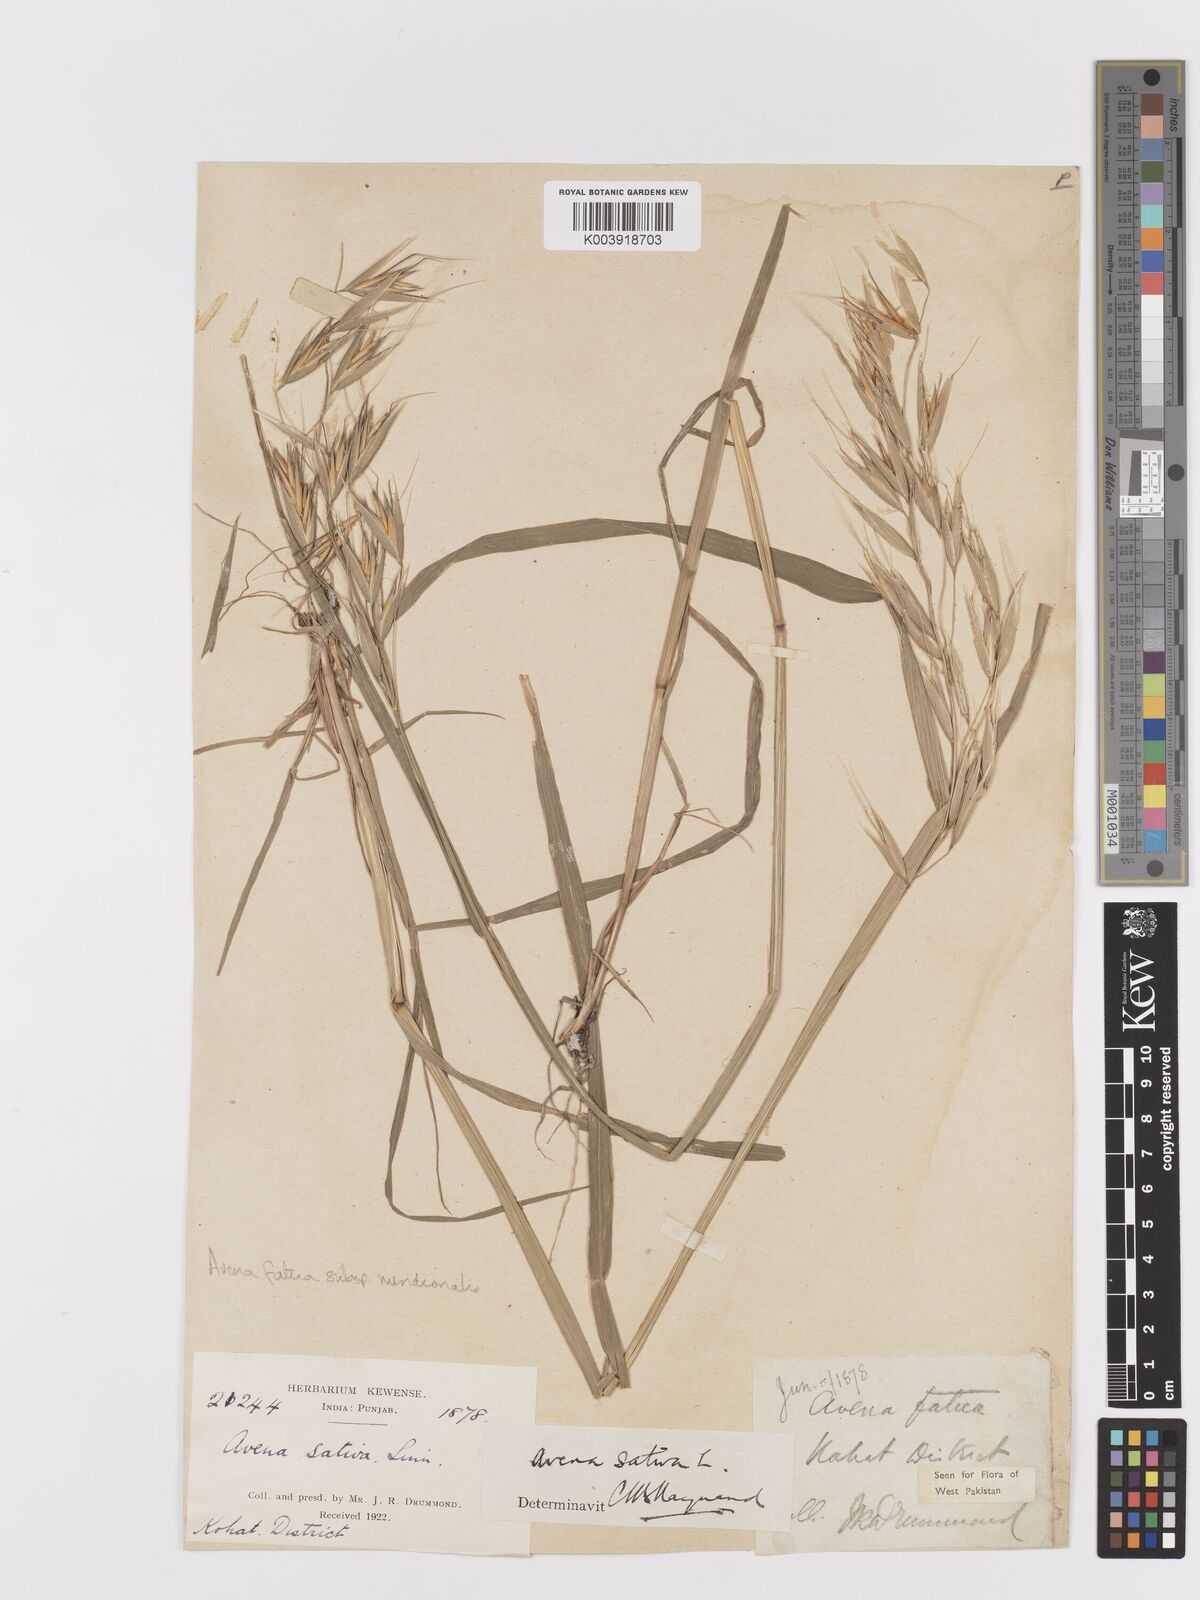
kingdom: Plantae
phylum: Tracheophyta
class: Liliopsida
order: Poales
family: Poaceae
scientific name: Poaceae
